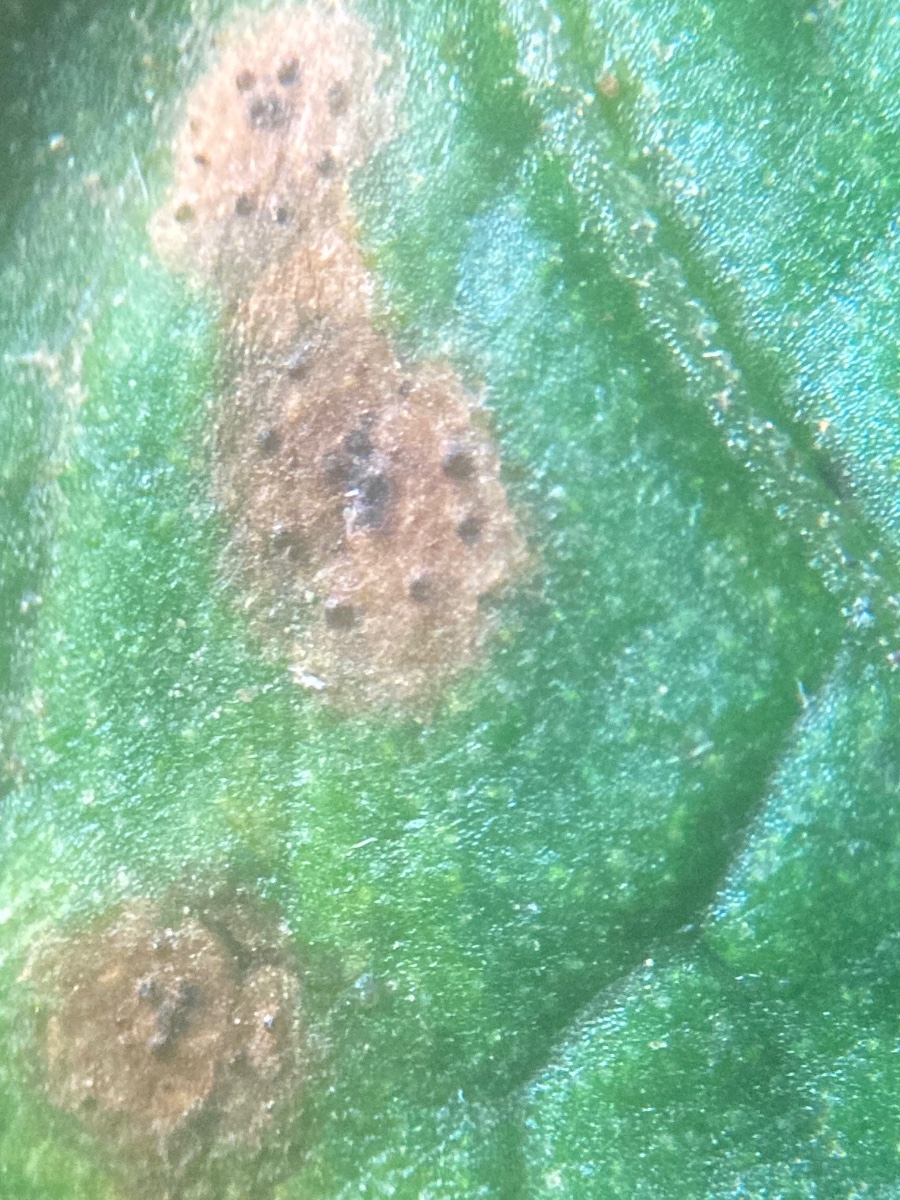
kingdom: Fungi
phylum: Ascomycota
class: Dothideomycetes
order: Venturiales
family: Venturiaceae
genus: Venturia
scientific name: Venturia rumicis
